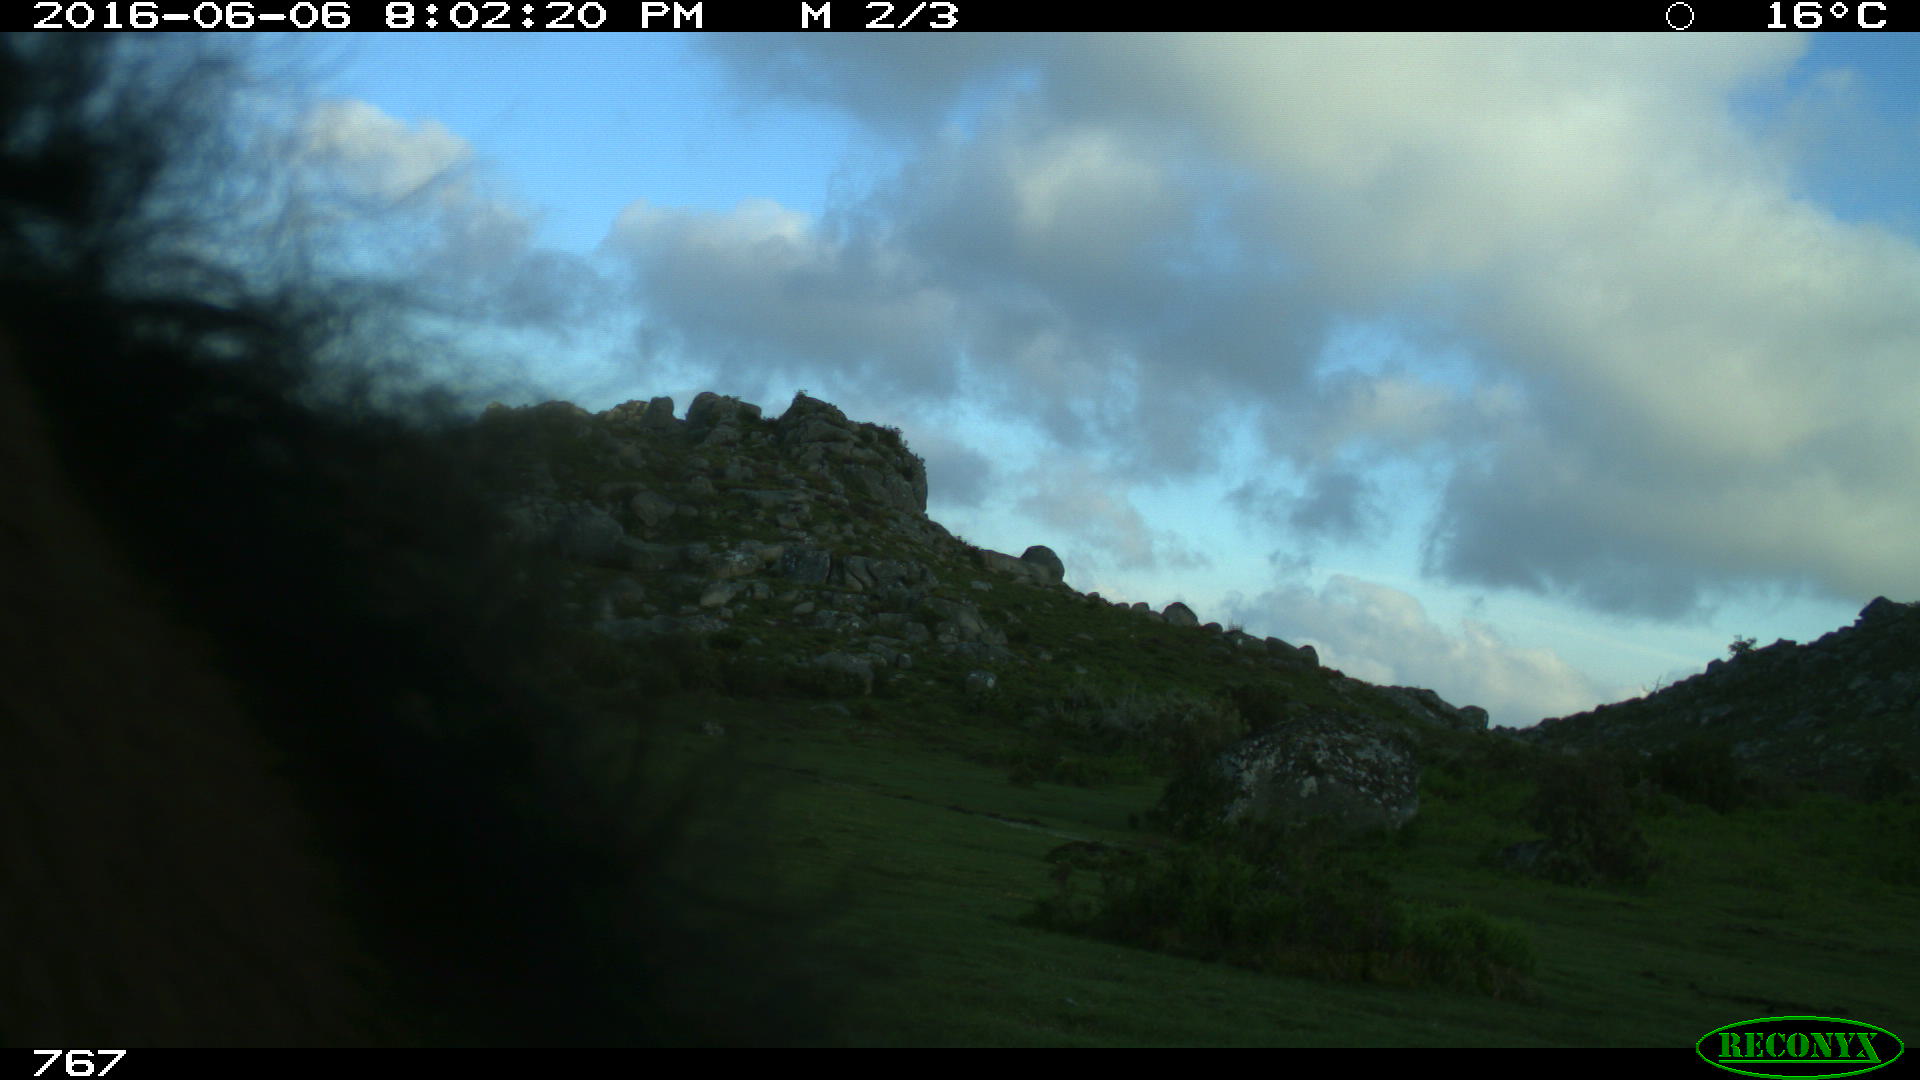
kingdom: Animalia
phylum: Chordata
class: Mammalia
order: Perissodactyla
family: Equidae
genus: Equus
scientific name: Equus caballus
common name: Horse
